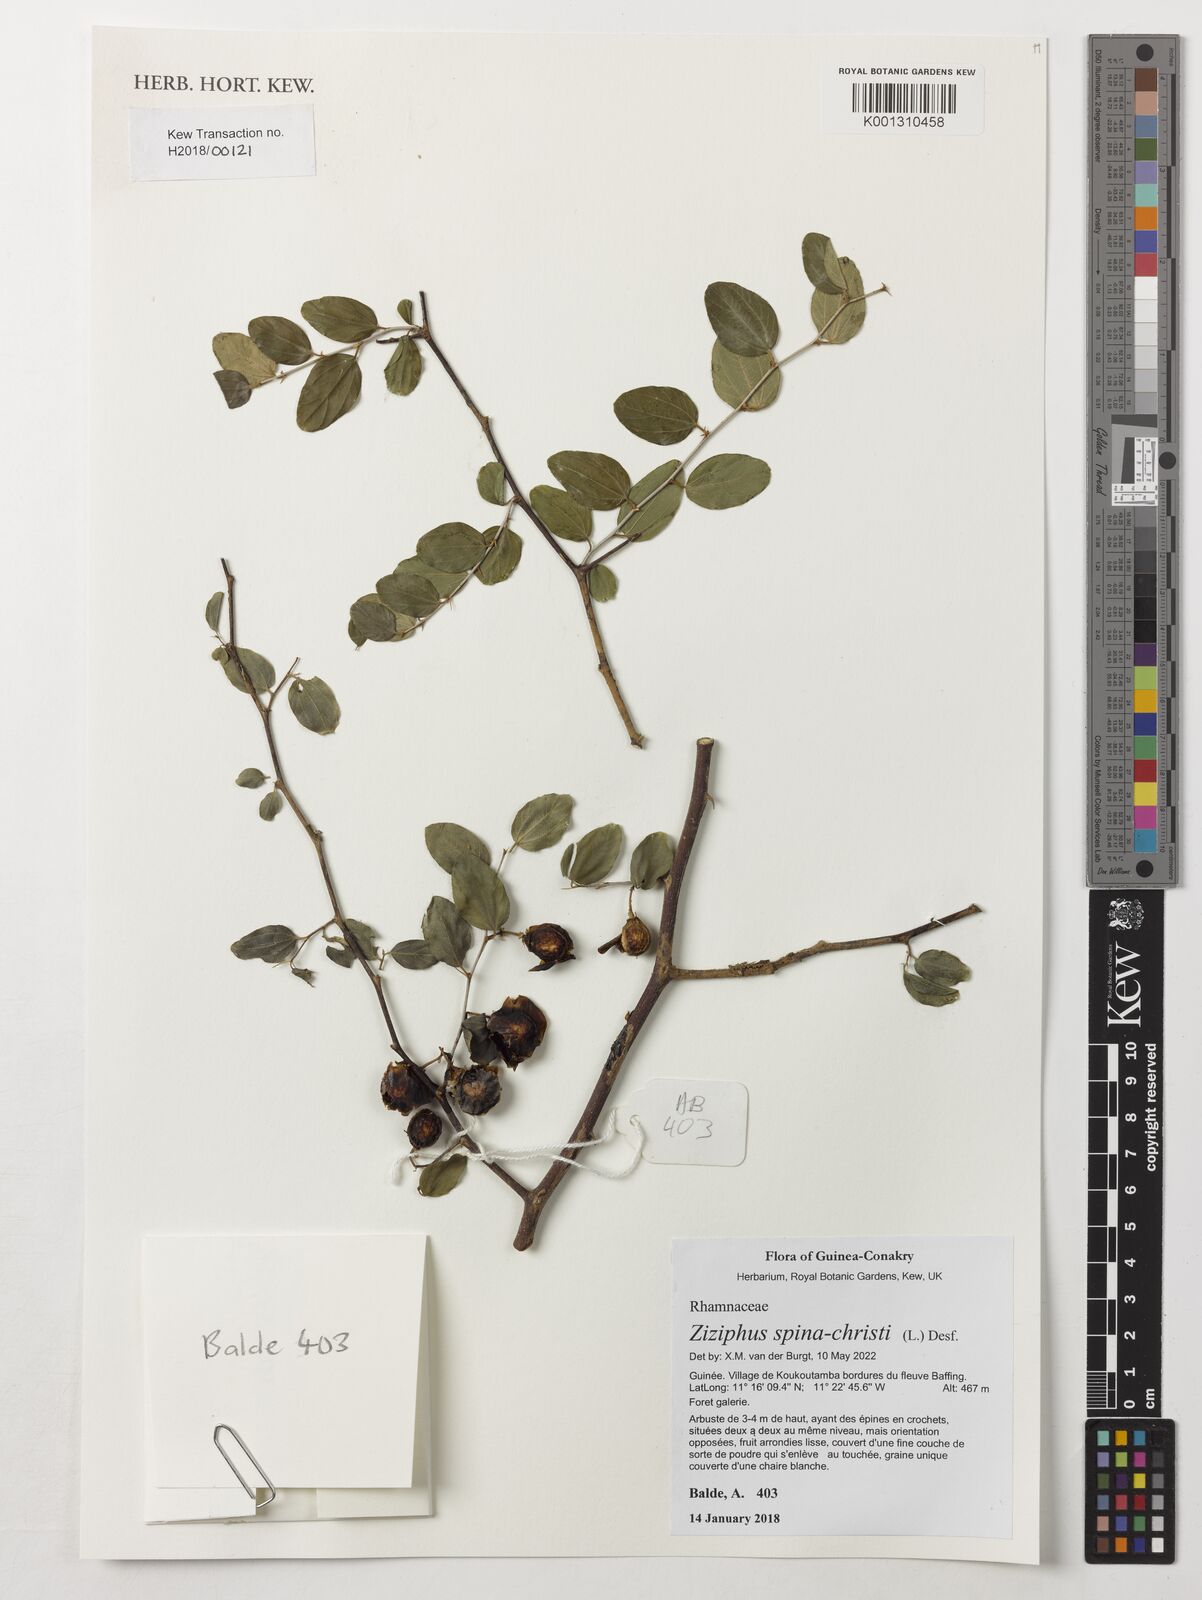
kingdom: Plantae
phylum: Tracheophyta
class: Magnoliopsida
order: Rosales
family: Rhamnaceae
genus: Ziziphus
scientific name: Ziziphus spina-christi
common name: Syrian christ-thorn
